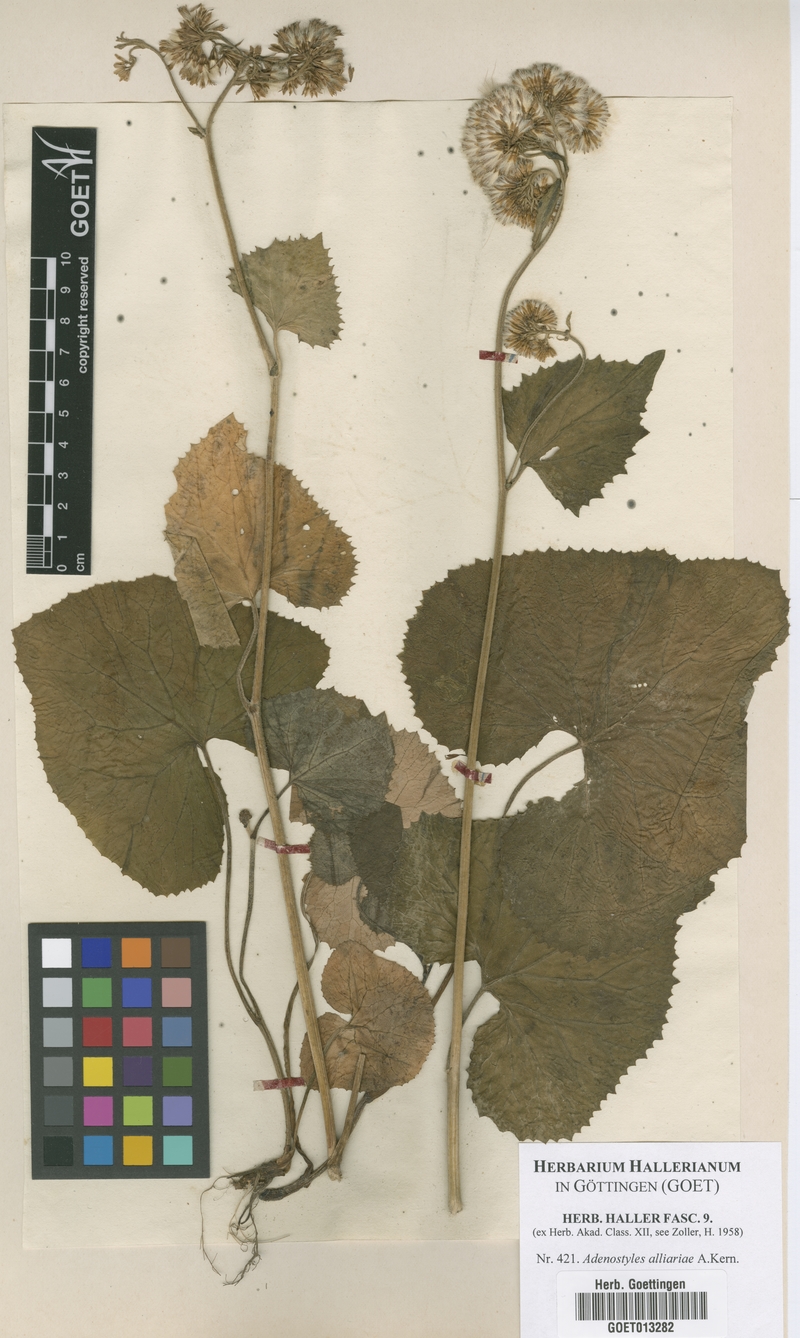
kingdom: Plantae
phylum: Tracheophyta
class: Magnoliopsida
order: Asterales
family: Asteraceae
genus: Adenostyles
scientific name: Adenostyles alliariae
